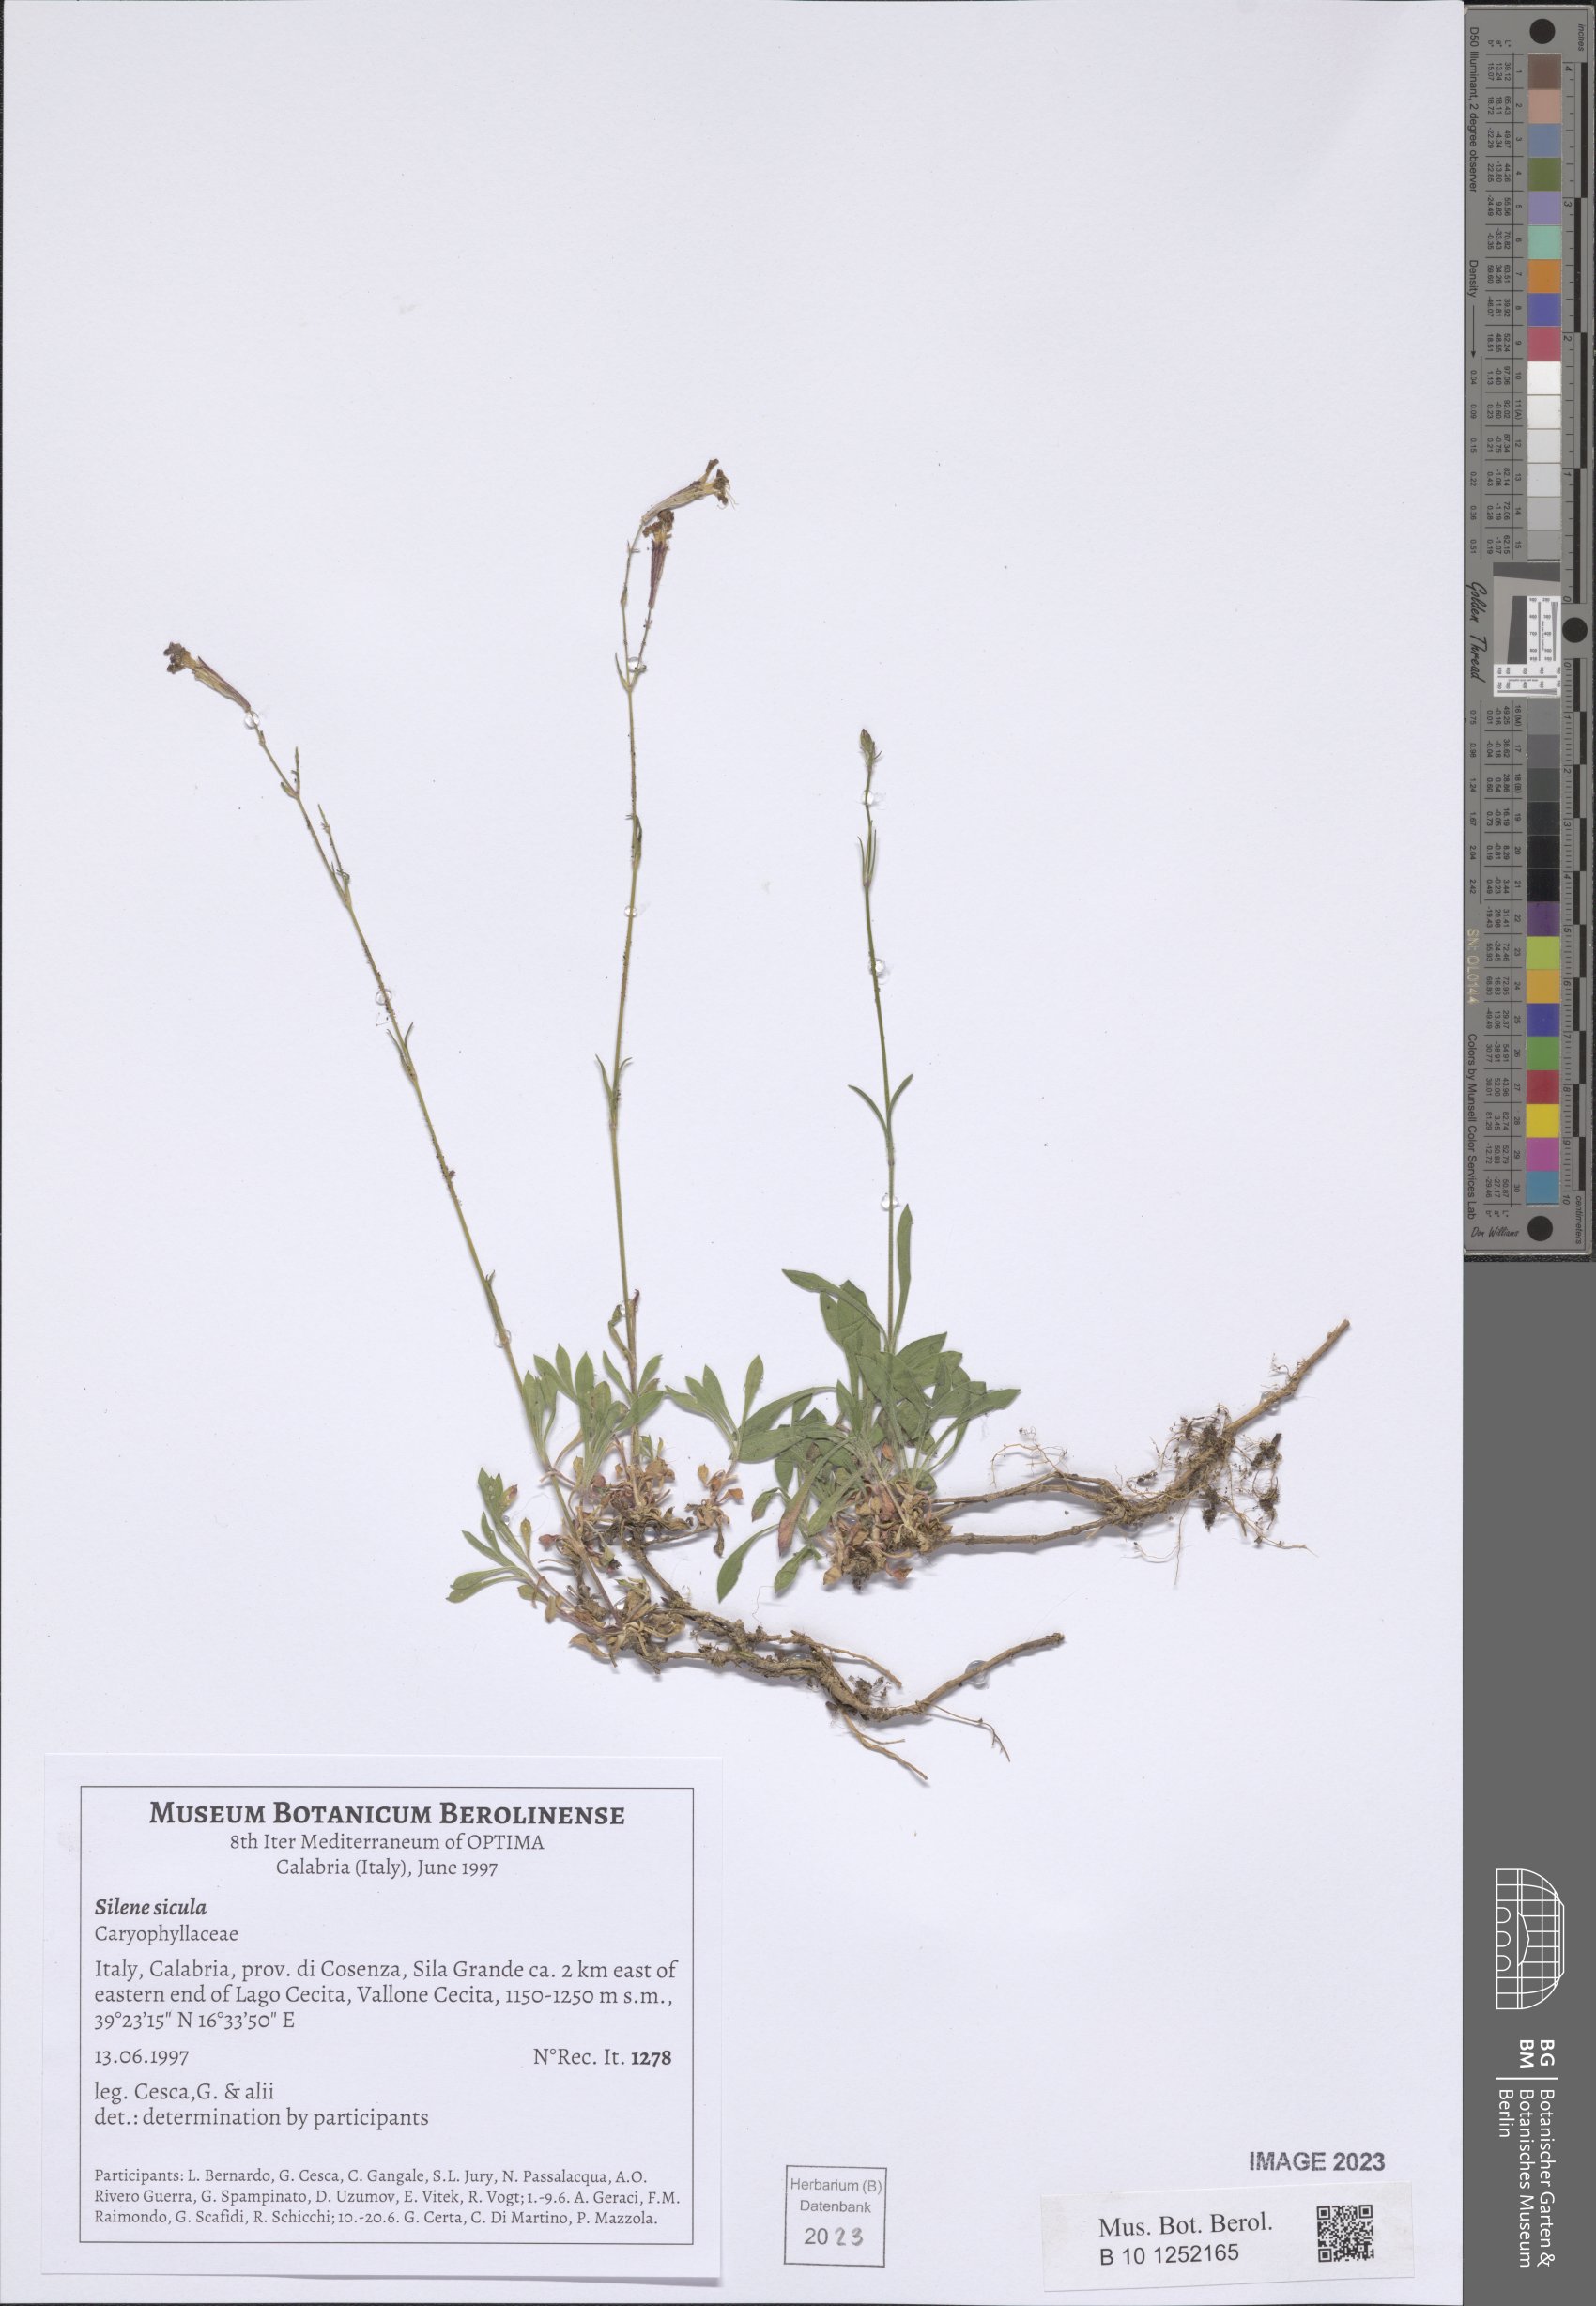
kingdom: Plantae
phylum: Tracheophyta
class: Magnoliopsida
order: Caryophyllales
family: Caryophyllaceae
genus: Silene
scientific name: Silene italica
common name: Italian catchfly
